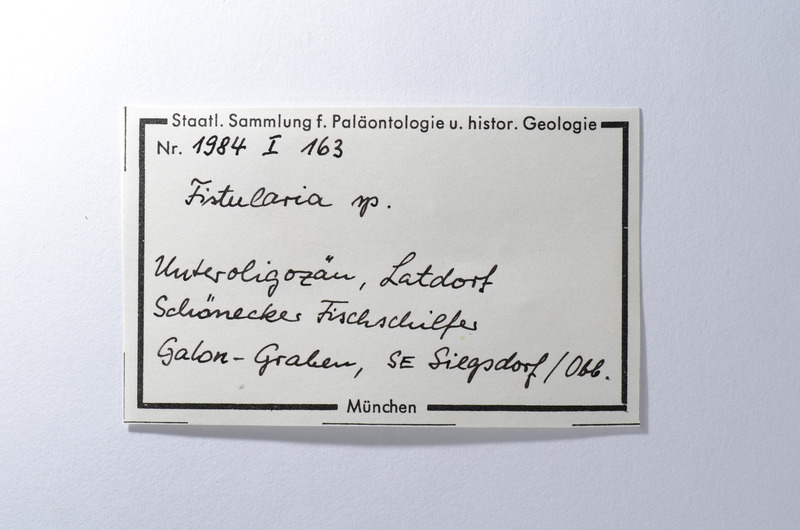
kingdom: Animalia
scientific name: Animalia
